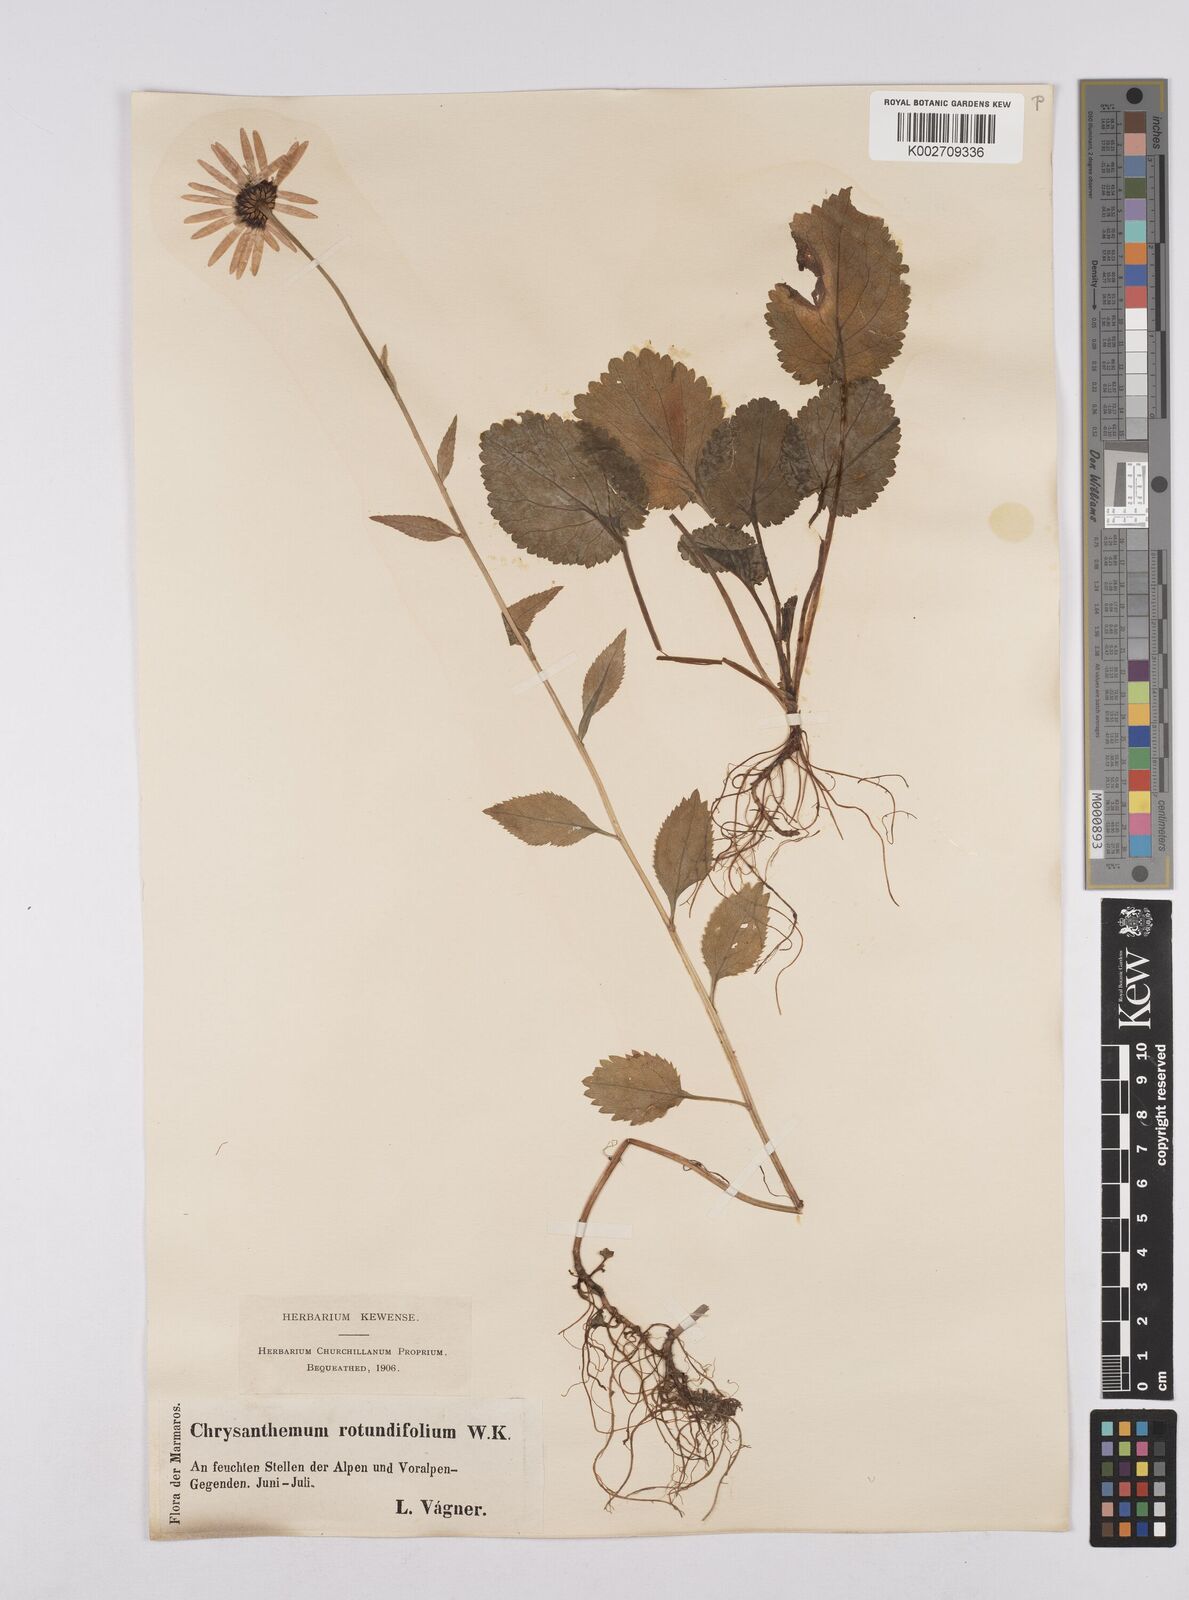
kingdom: Plantae
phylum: Tracheophyta
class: Magnoliopsida
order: Asterales
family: Asteraceae
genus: Leucanthemum
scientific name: Leucanthemum rotundifolium
